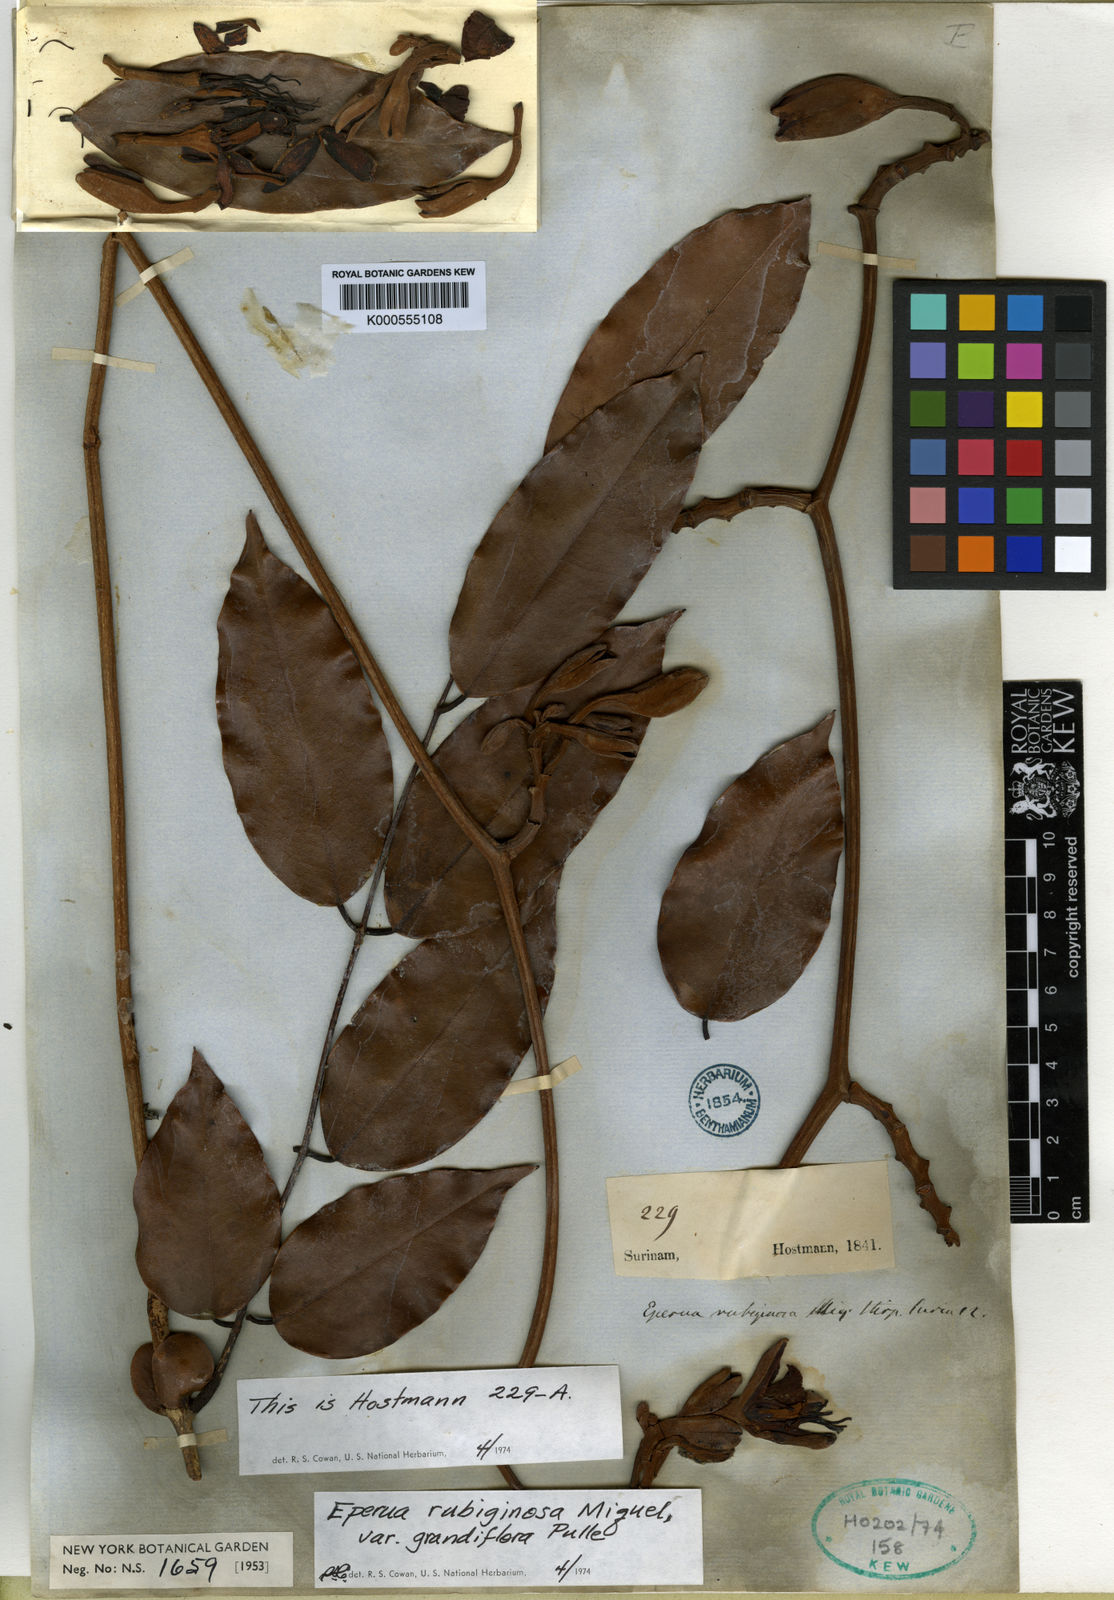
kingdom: Plantae
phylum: Tracheophyta
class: Magnoliopsida
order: Fabales
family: Fabaceae
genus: Eperua
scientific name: Eperua rubiginosa
